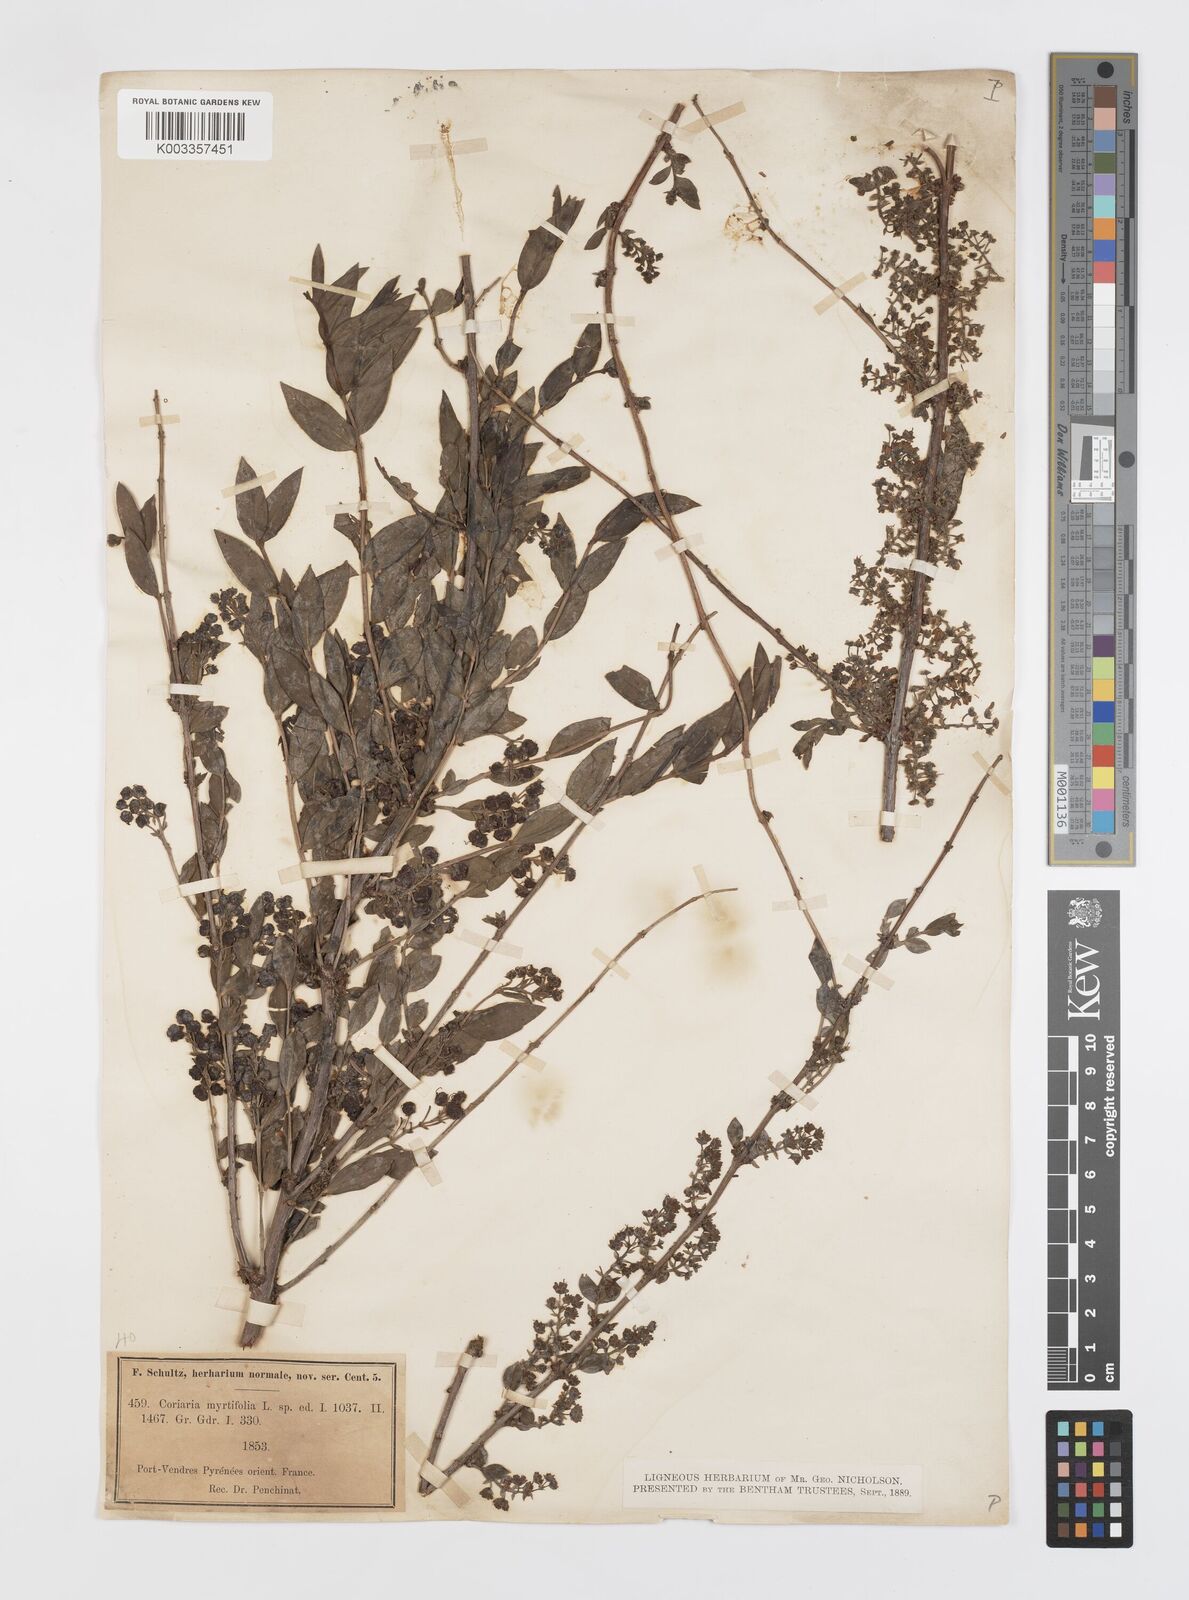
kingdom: Plantae
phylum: Tracheophyta
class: Magnoliopsida
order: Cucurbitales
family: Coriariaceae
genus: Coriaria
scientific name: Coriaria myrtifolia
